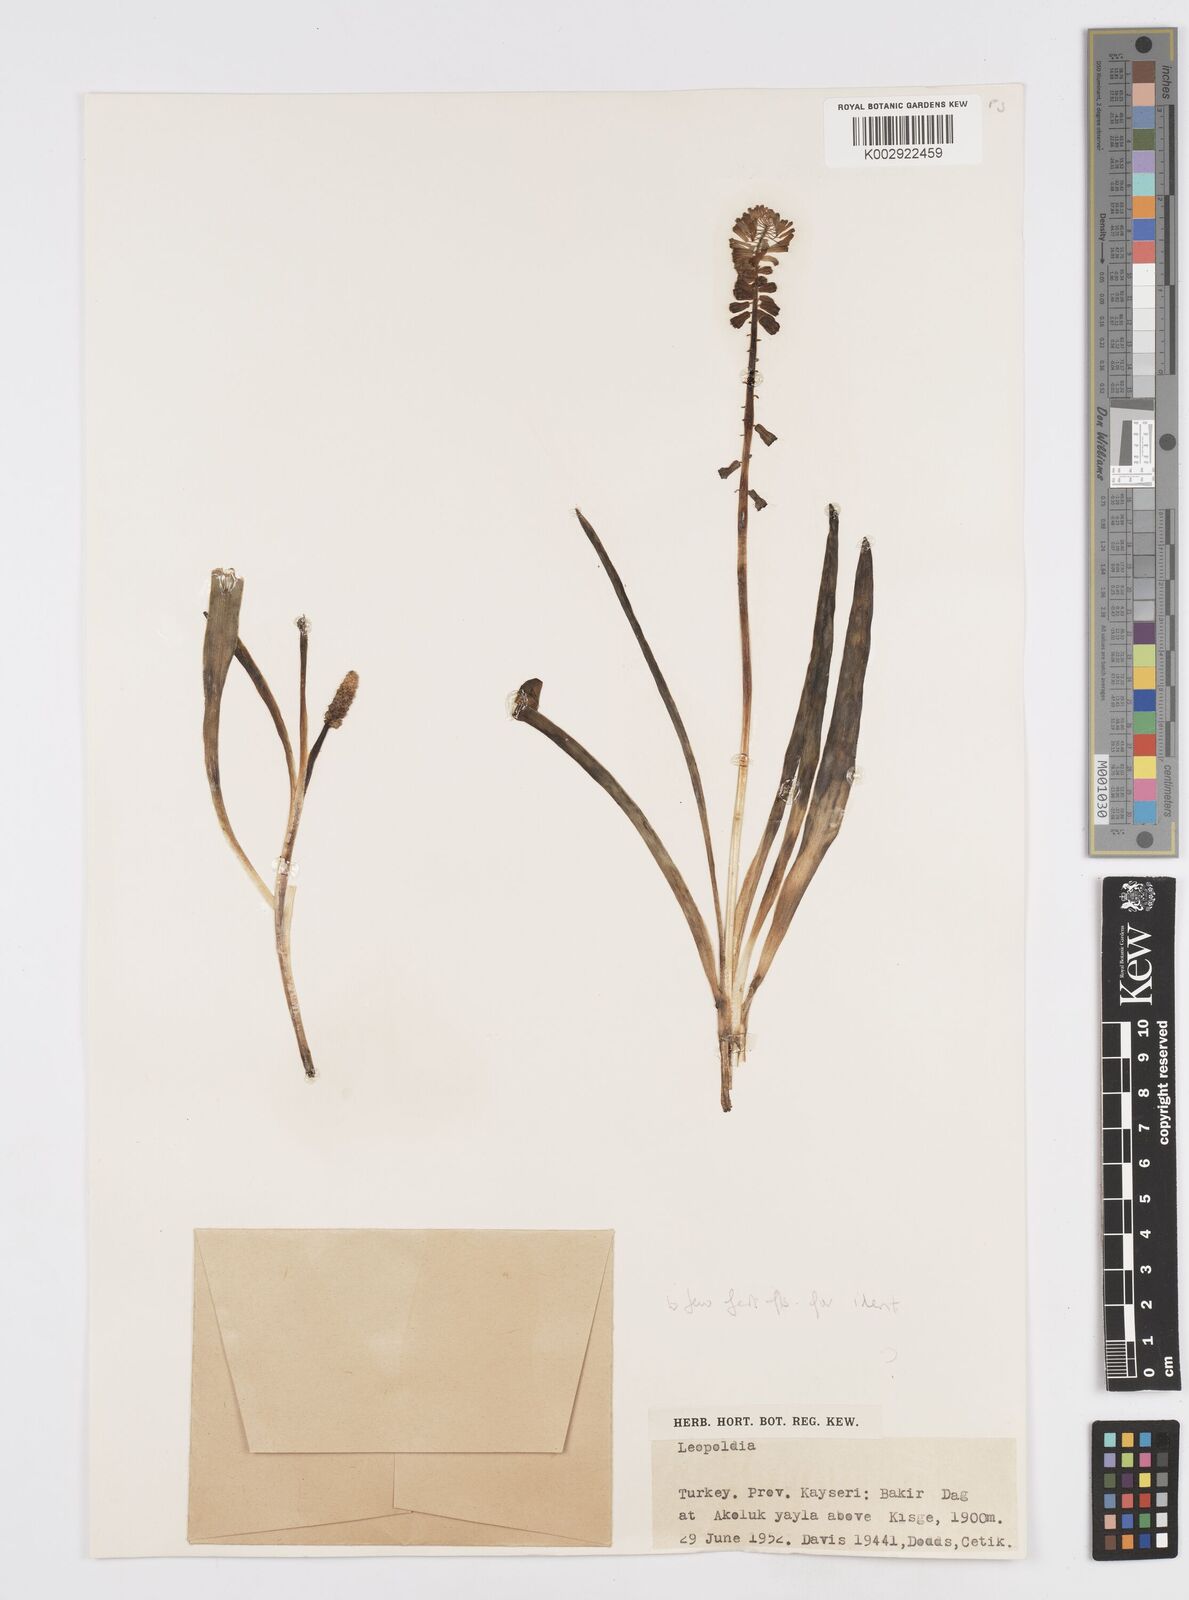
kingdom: Plantae
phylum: Tracheophyta
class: Liliopsida
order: Asparagales
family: Asparagaceae
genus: Muscari
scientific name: Muscari tenuiflorum
